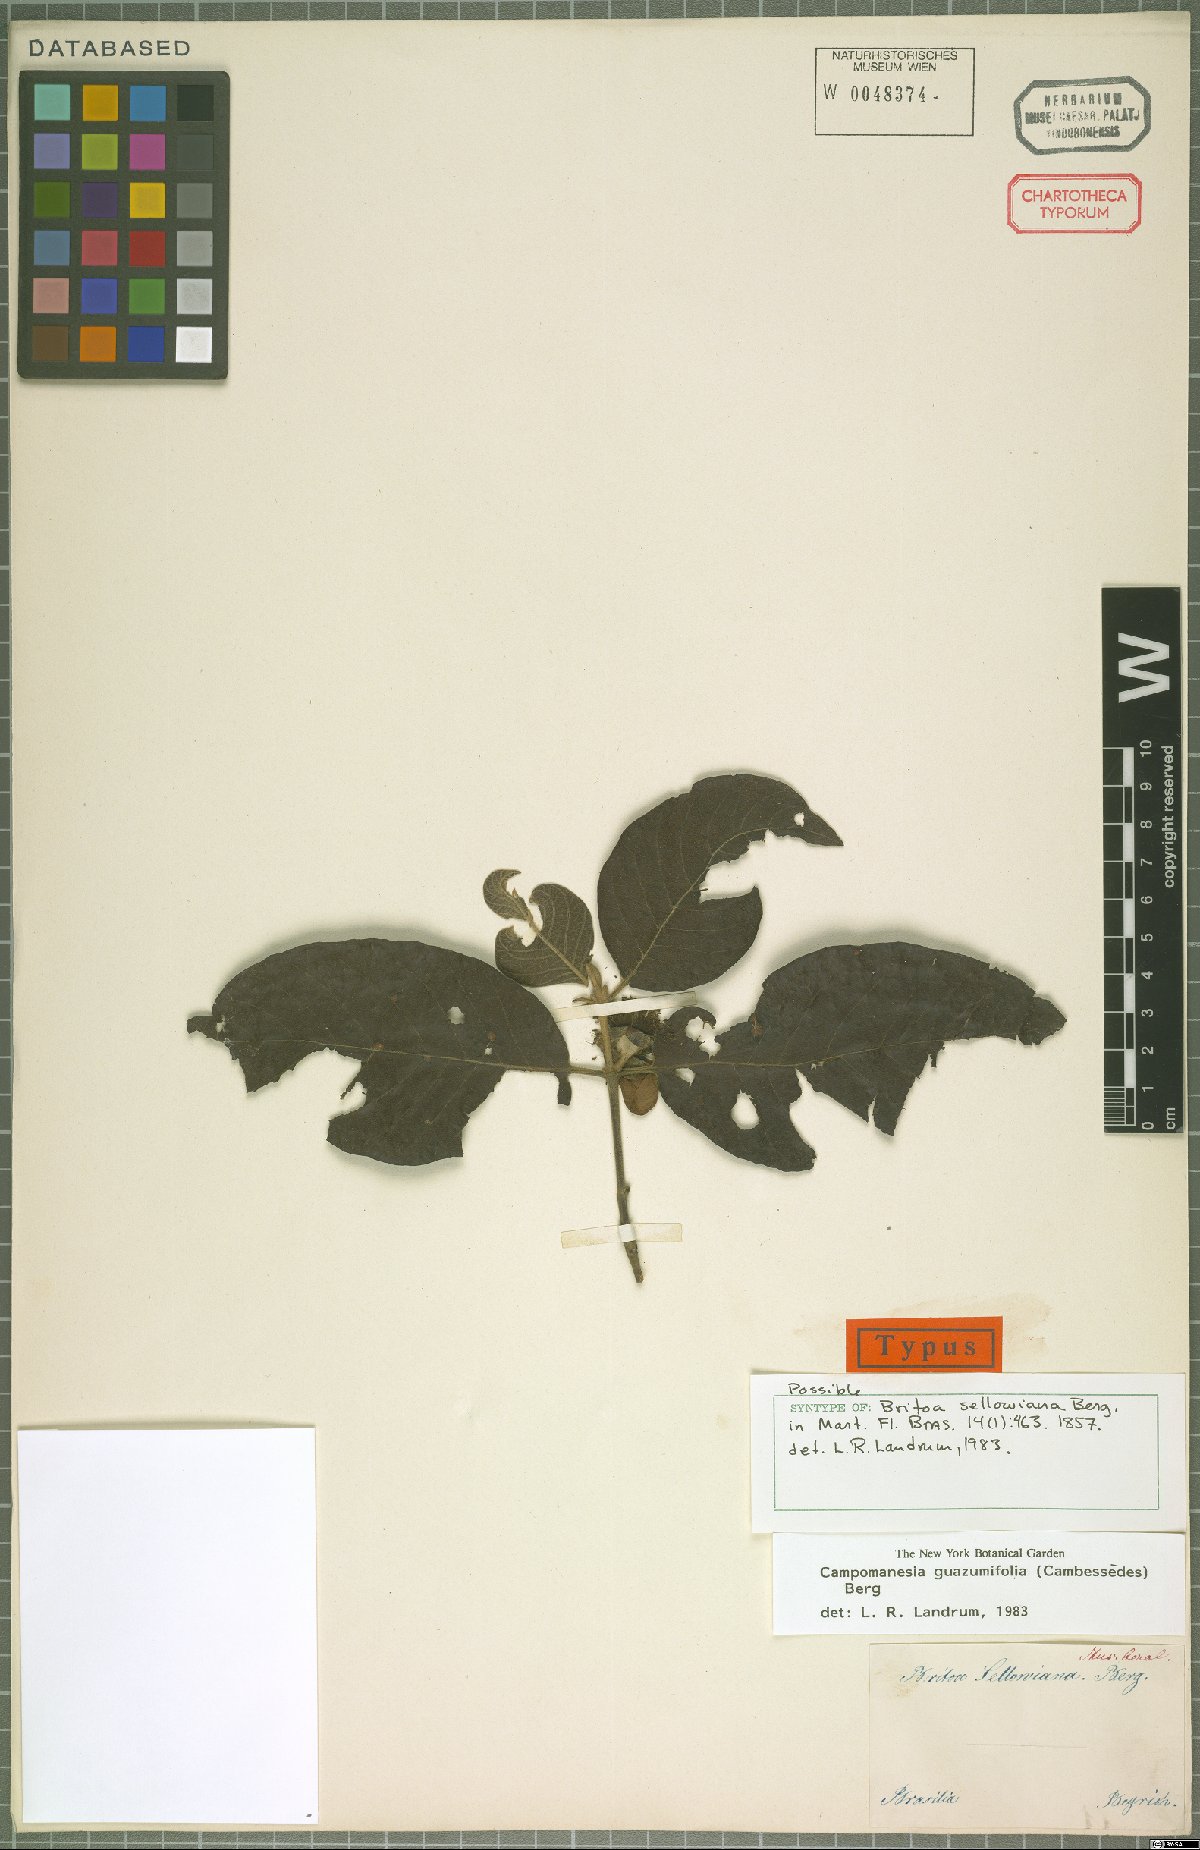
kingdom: Plantae
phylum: Tracheophyta
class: Magnoliopsida
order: Myrtales
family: Myrtaceae
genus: Campomanesia
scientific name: Campomanesia guazumifolia
